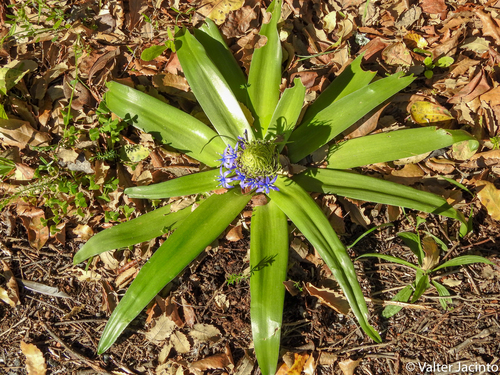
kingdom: Plantae
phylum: Tracheophyta
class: Liliopsida
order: Asparagales
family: Asparagaceae
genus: Scilla
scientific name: Scilla peruviana
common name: Portuguese squill
